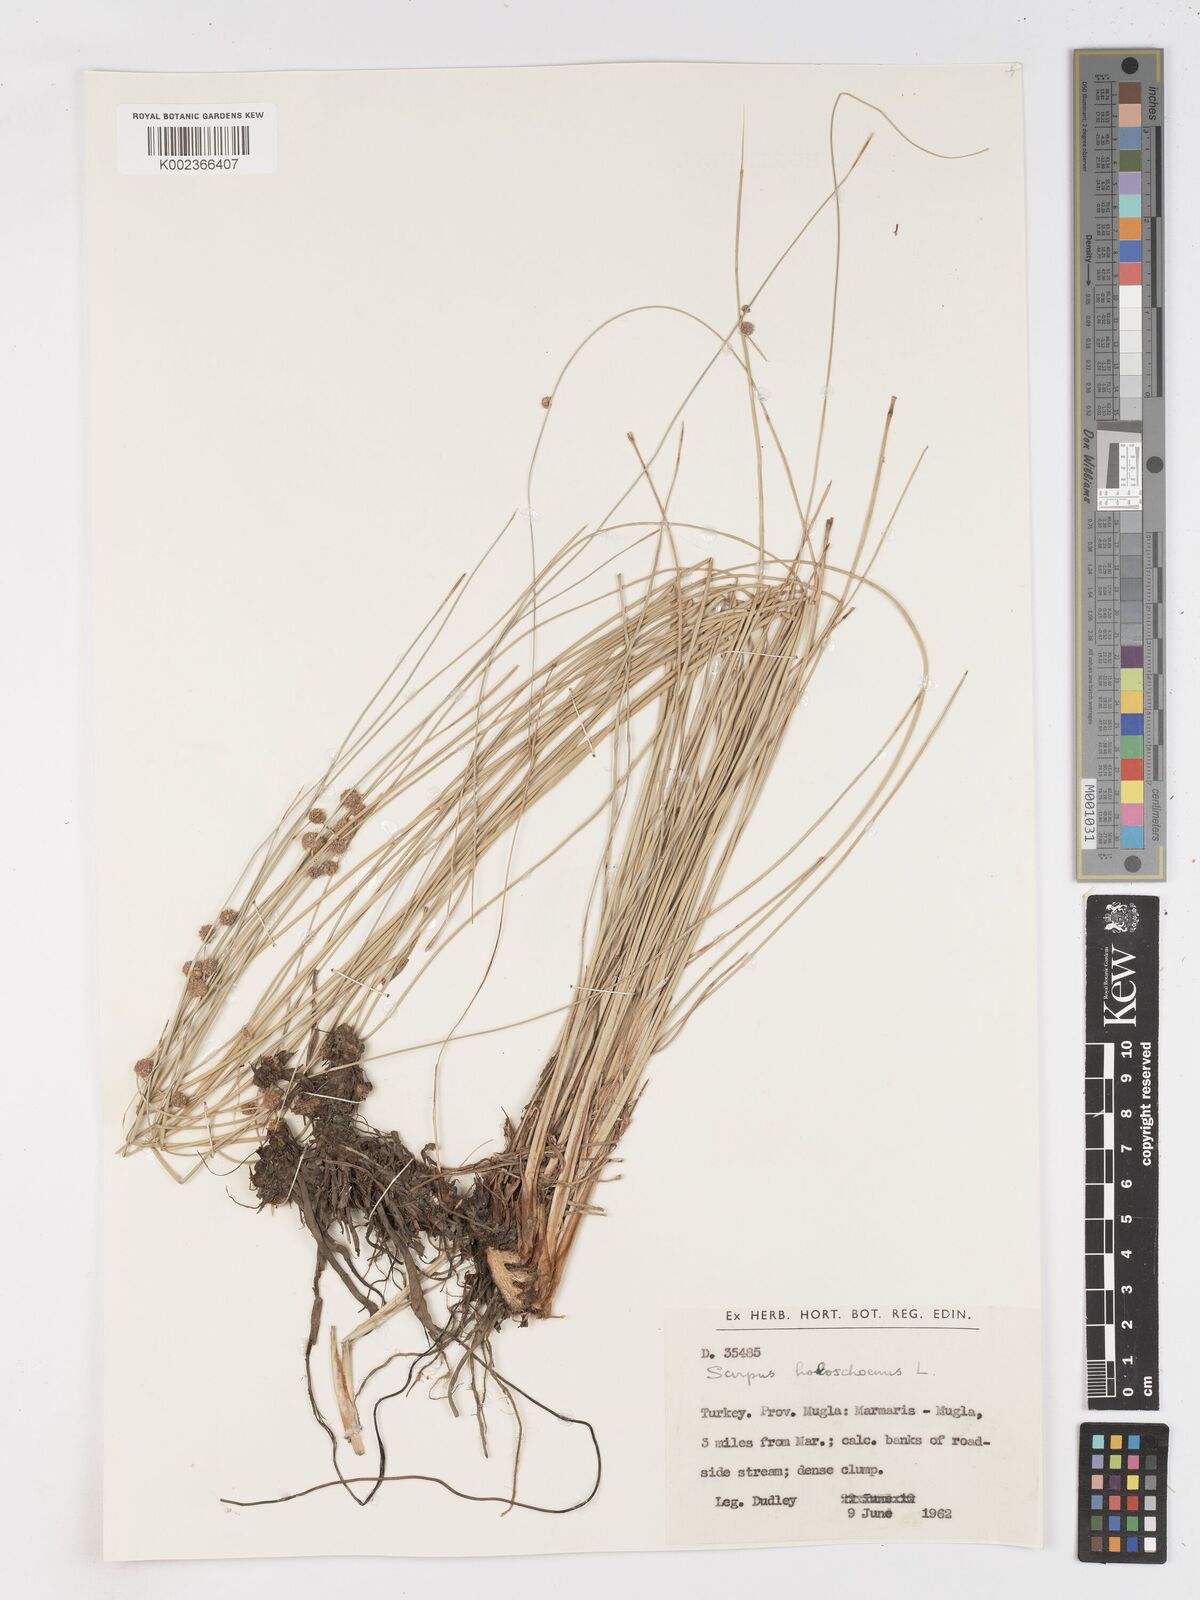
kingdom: Plantae
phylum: Tracheophyta
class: Liliopsida
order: Poales
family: Cyperaceae
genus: Scirpoides
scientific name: Scirpoides holoschoenus
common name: Round-headed club-rush
